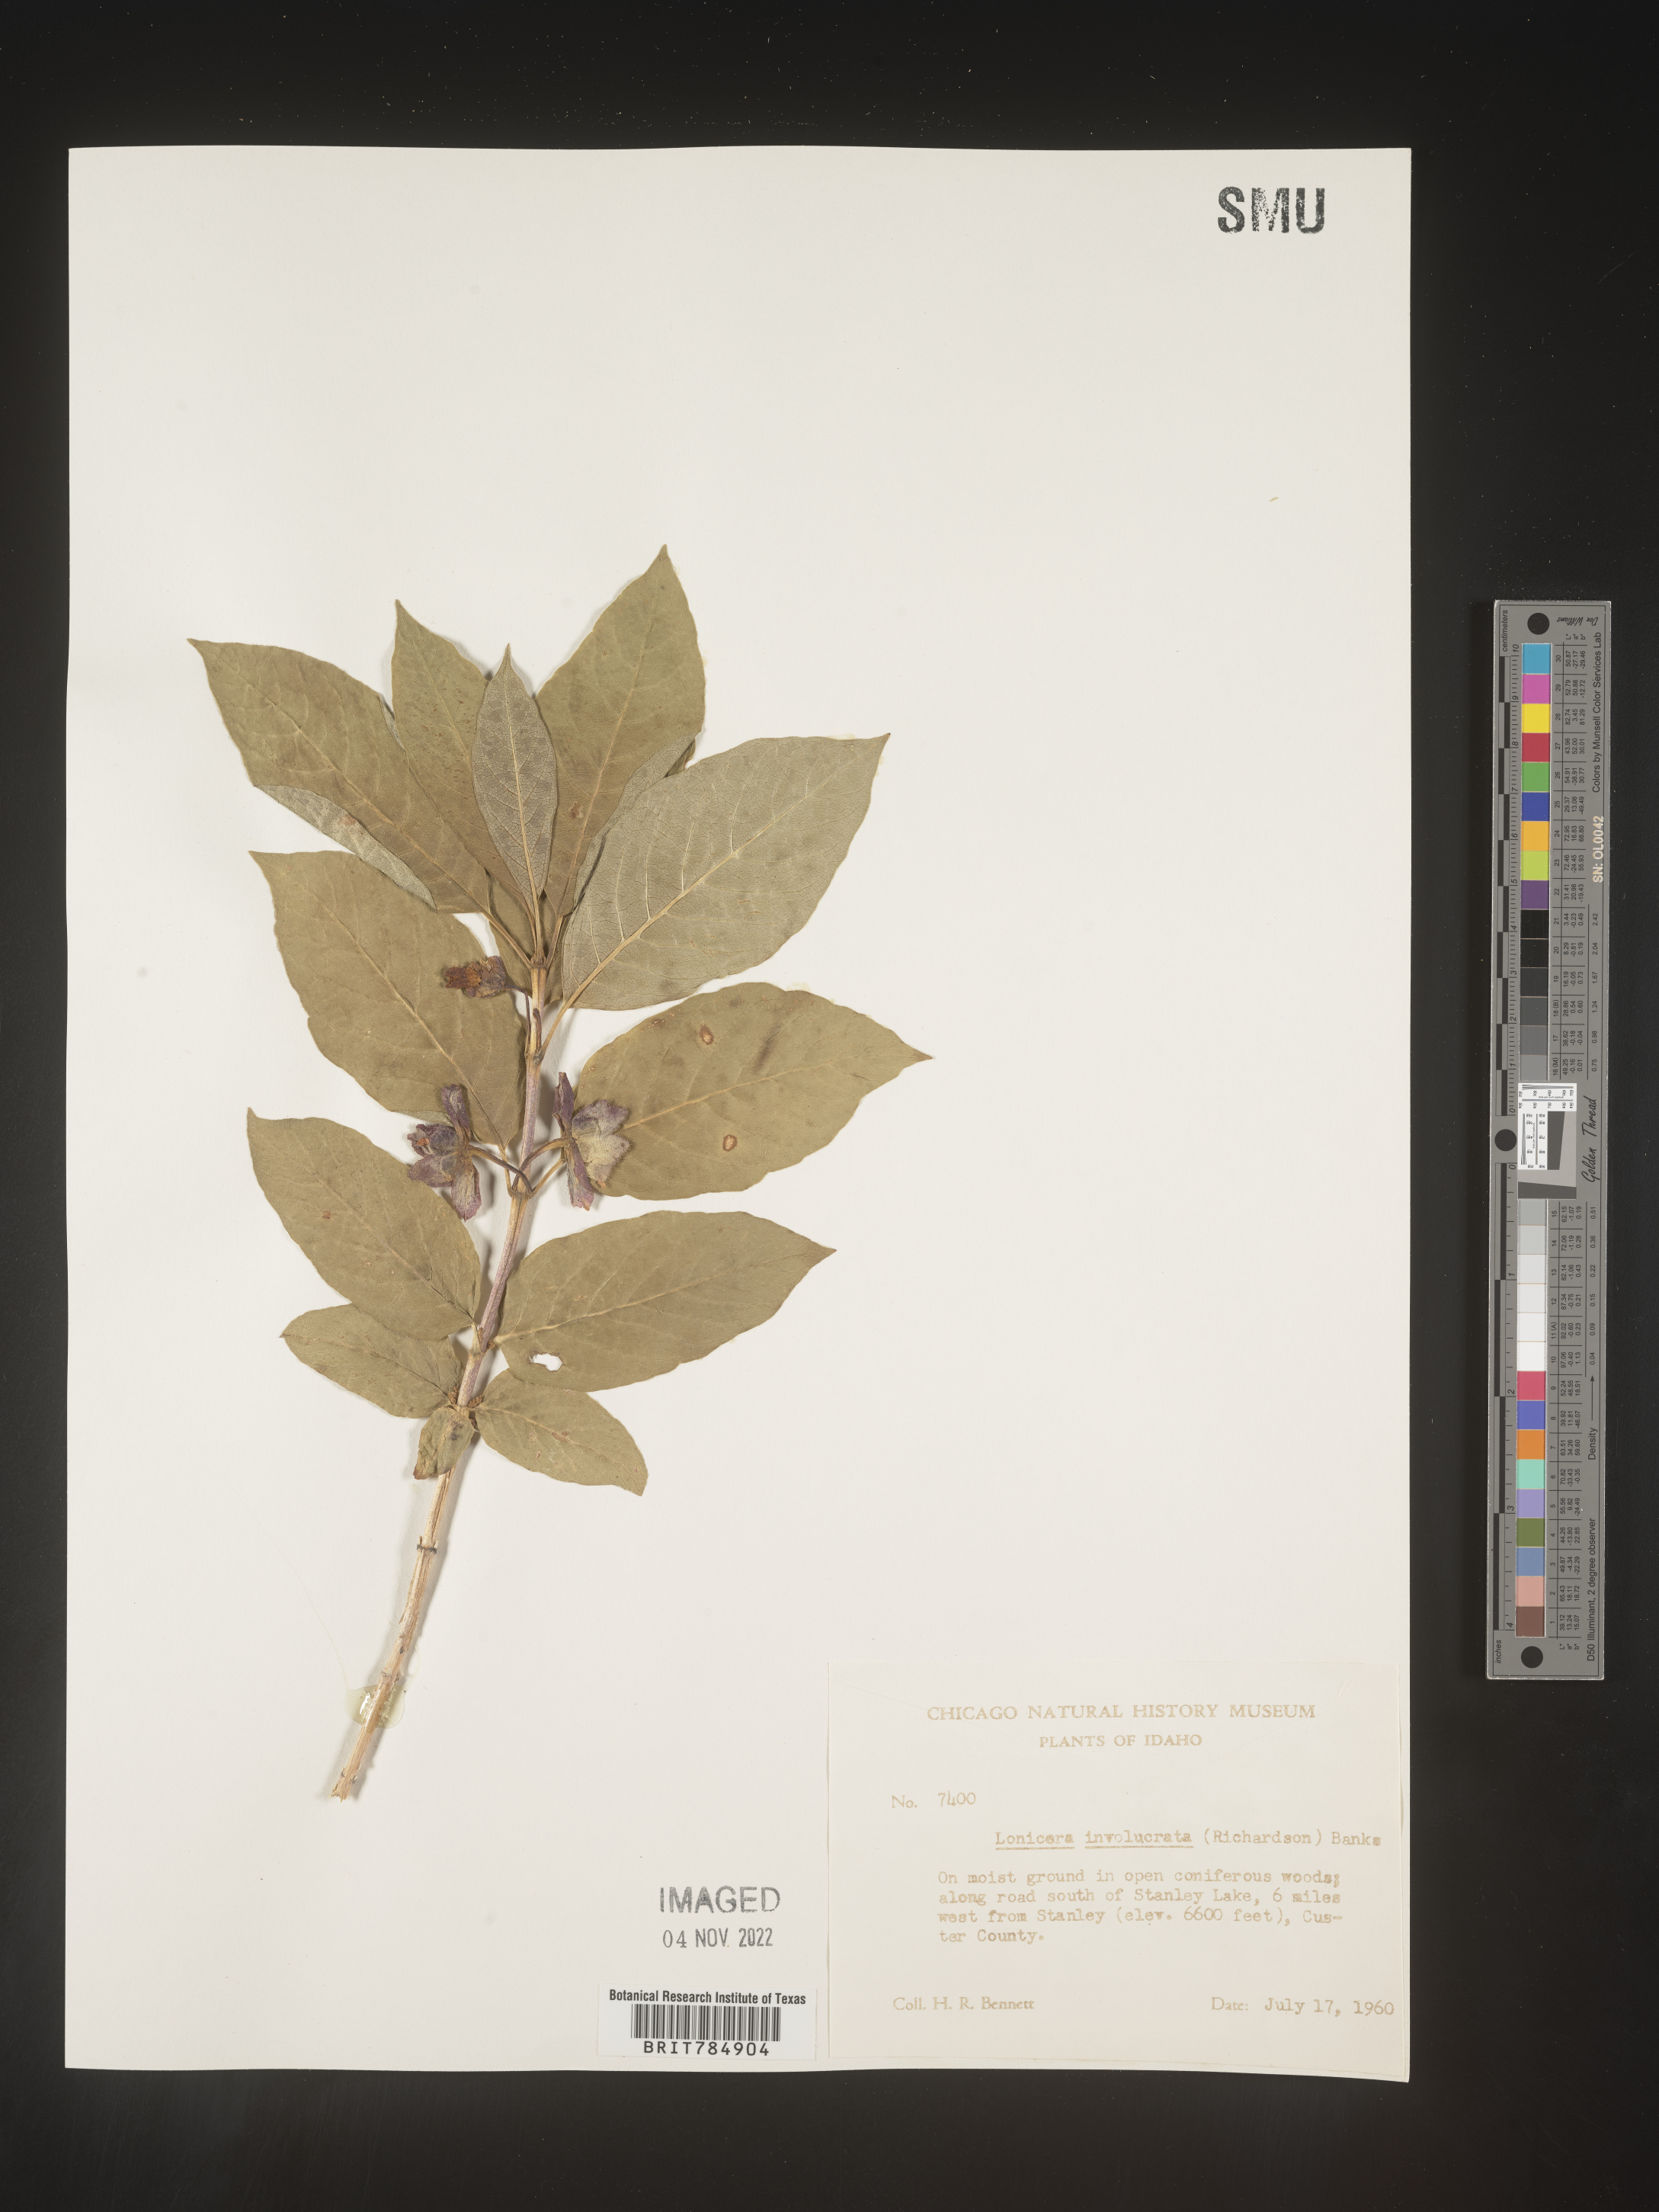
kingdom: Plantae
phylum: Tracheophyta
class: Magnoliopsida
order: Dipsacales
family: Caprifoliaceae
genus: Lonicera
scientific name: Lonicera involucrata
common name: Californian honeysuckle
